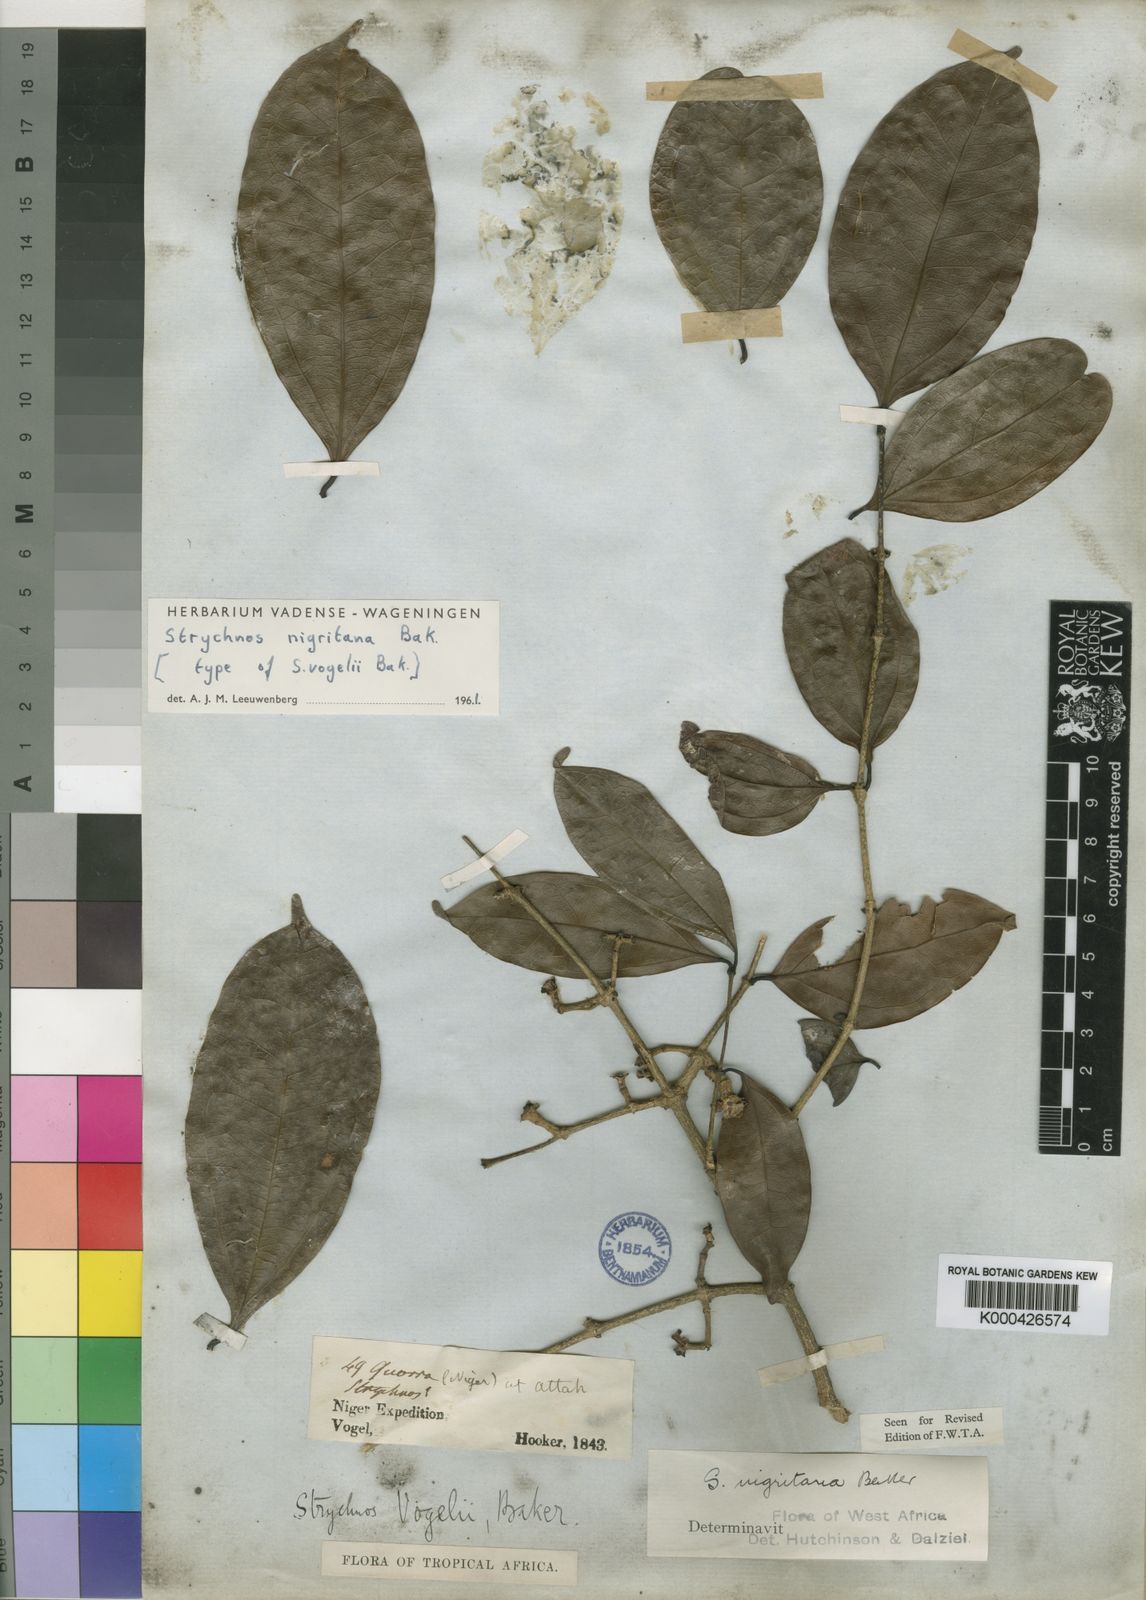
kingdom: Plantae
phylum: Tracheophyta
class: Magnoliopsida
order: Gentianales
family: Loganiaceae
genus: Strychnos
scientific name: Strychnos nigritana
